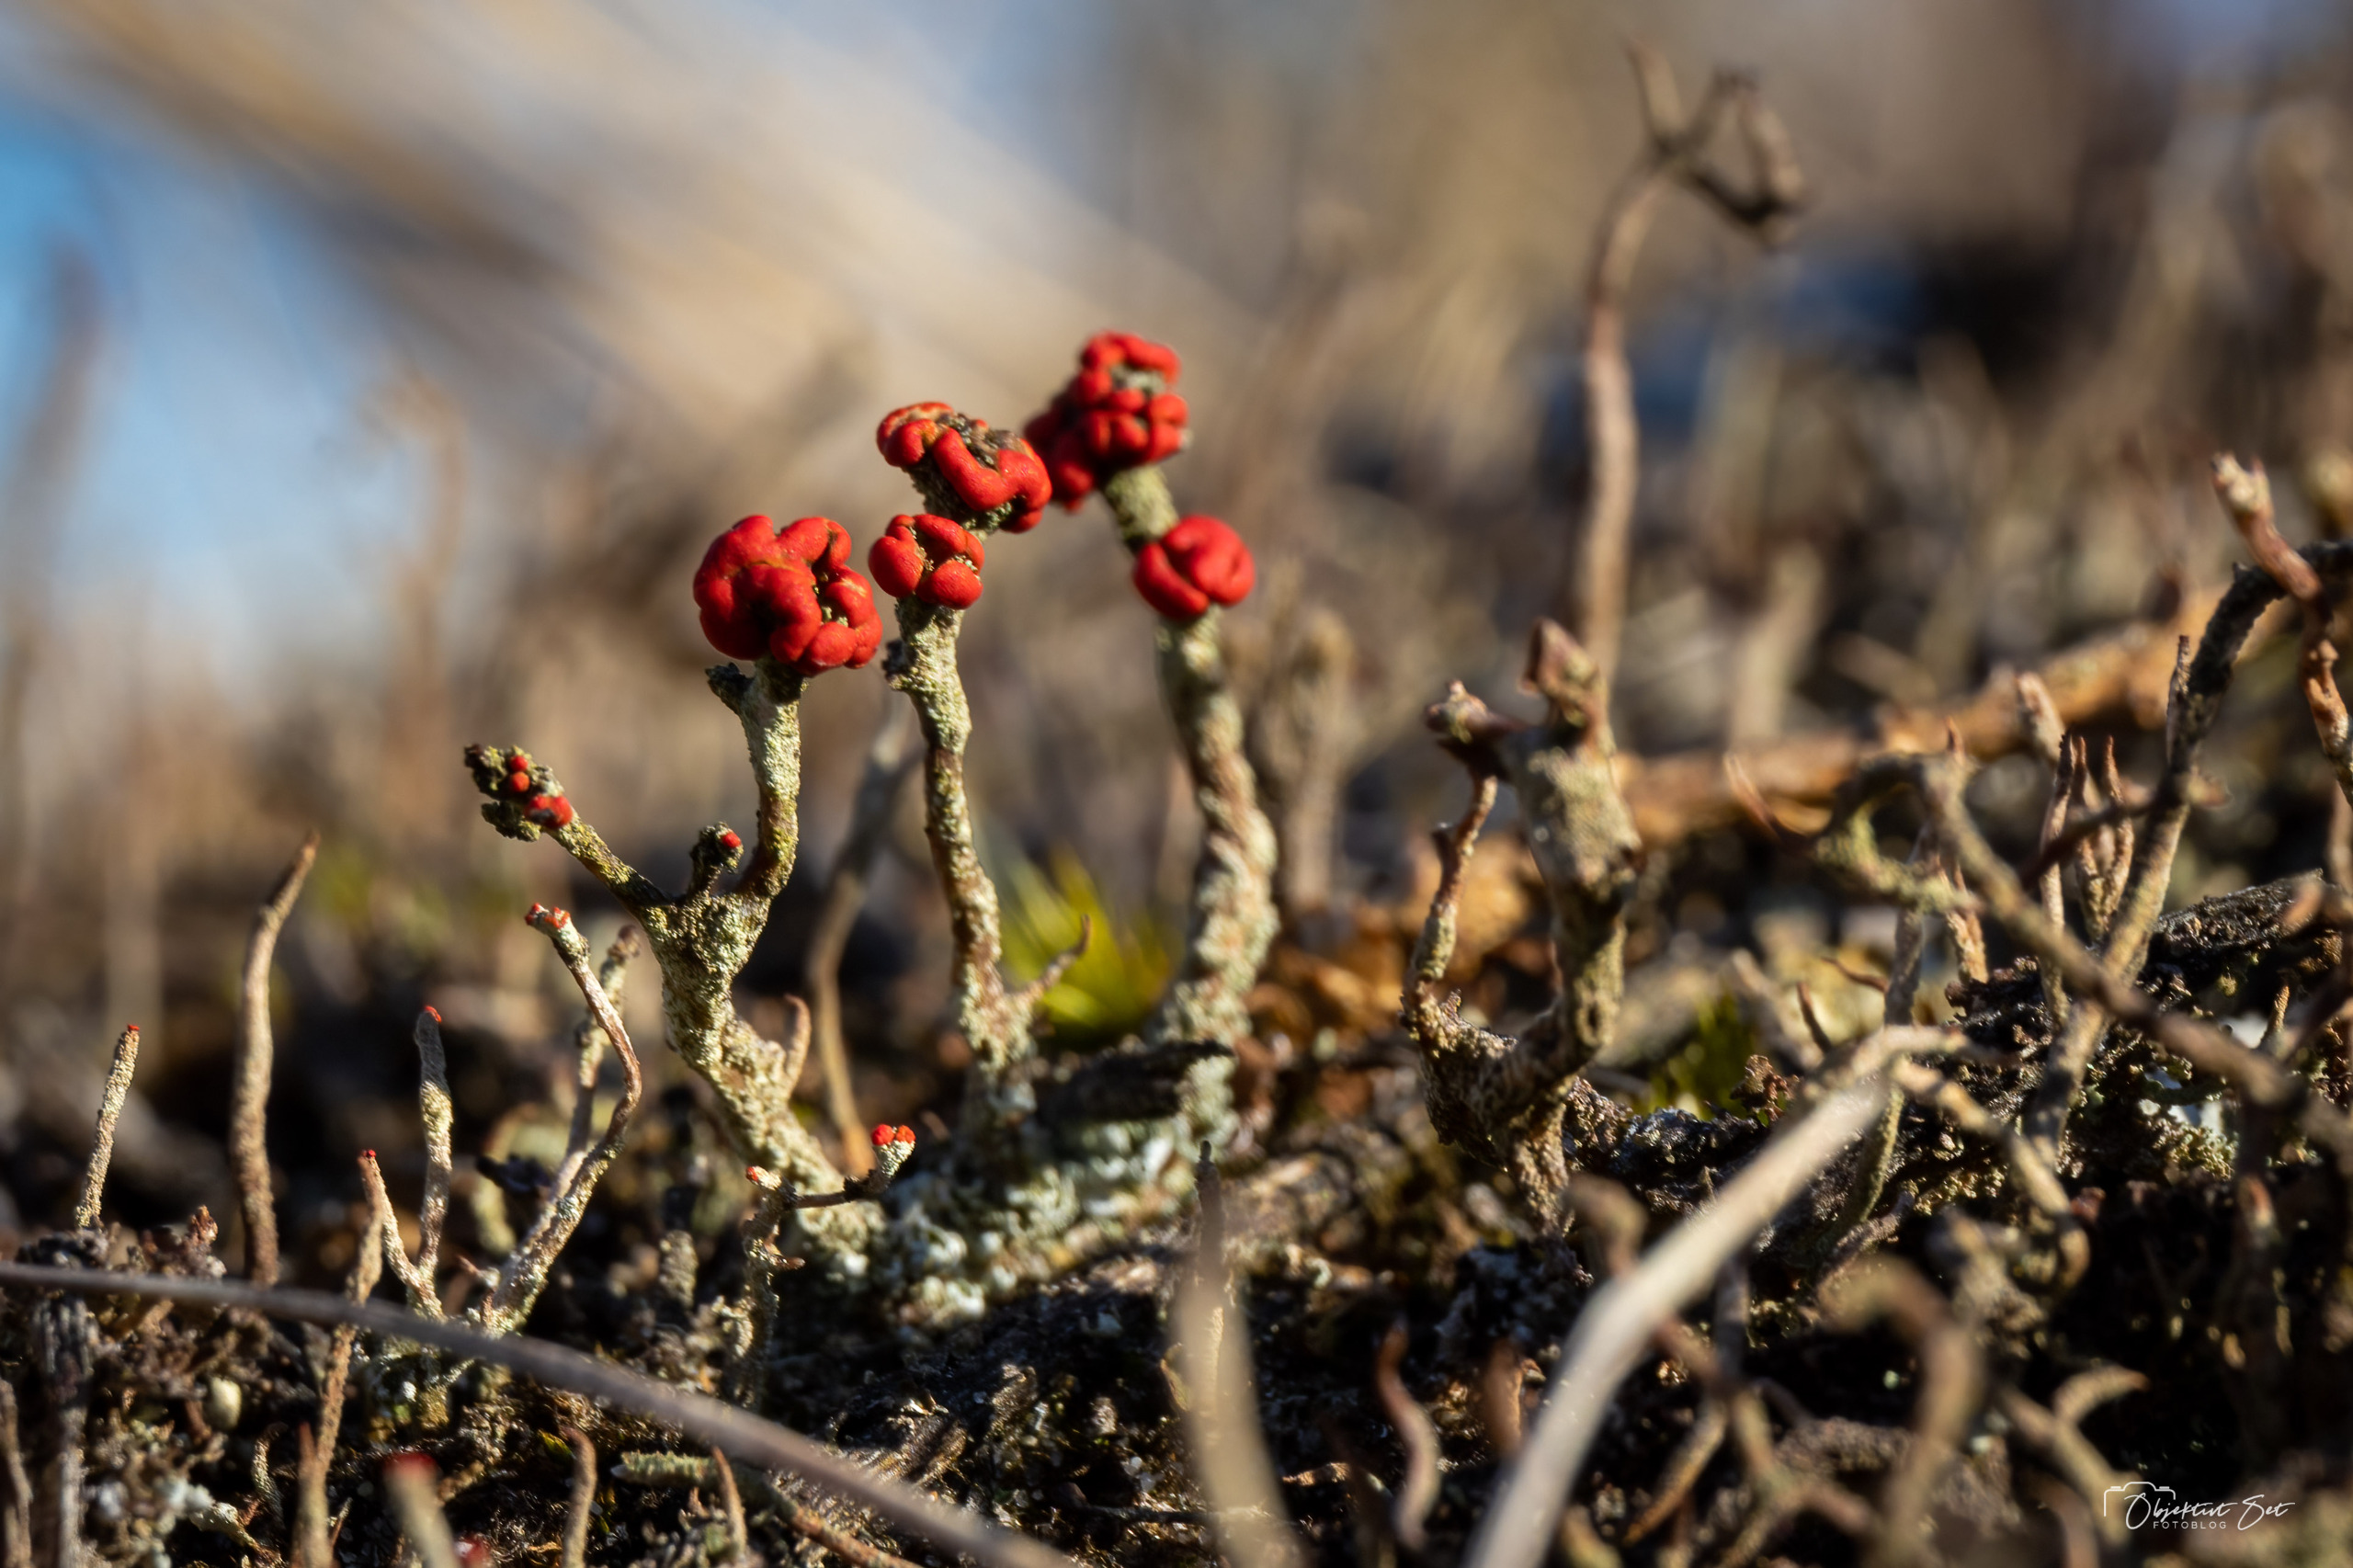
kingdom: Fungi
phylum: Ascomycota
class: Lecanoromycetes
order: Lecanorales
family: Cladoniaceae
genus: Cladonia
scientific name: Cladonia floerkeana
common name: Lakrød bægerlav
